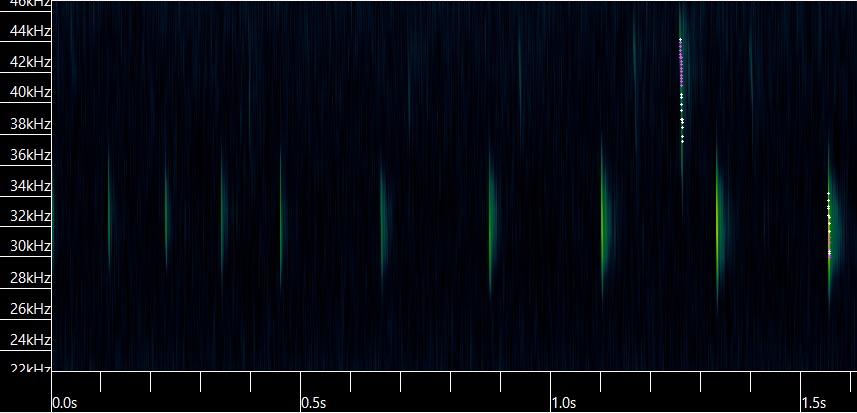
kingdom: Animalia
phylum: Chordata
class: Mammalia
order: Chiroptera
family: Vespertilionidae
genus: Barbastella
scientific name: Barbastella barbastellus
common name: Bredøret flagermus
